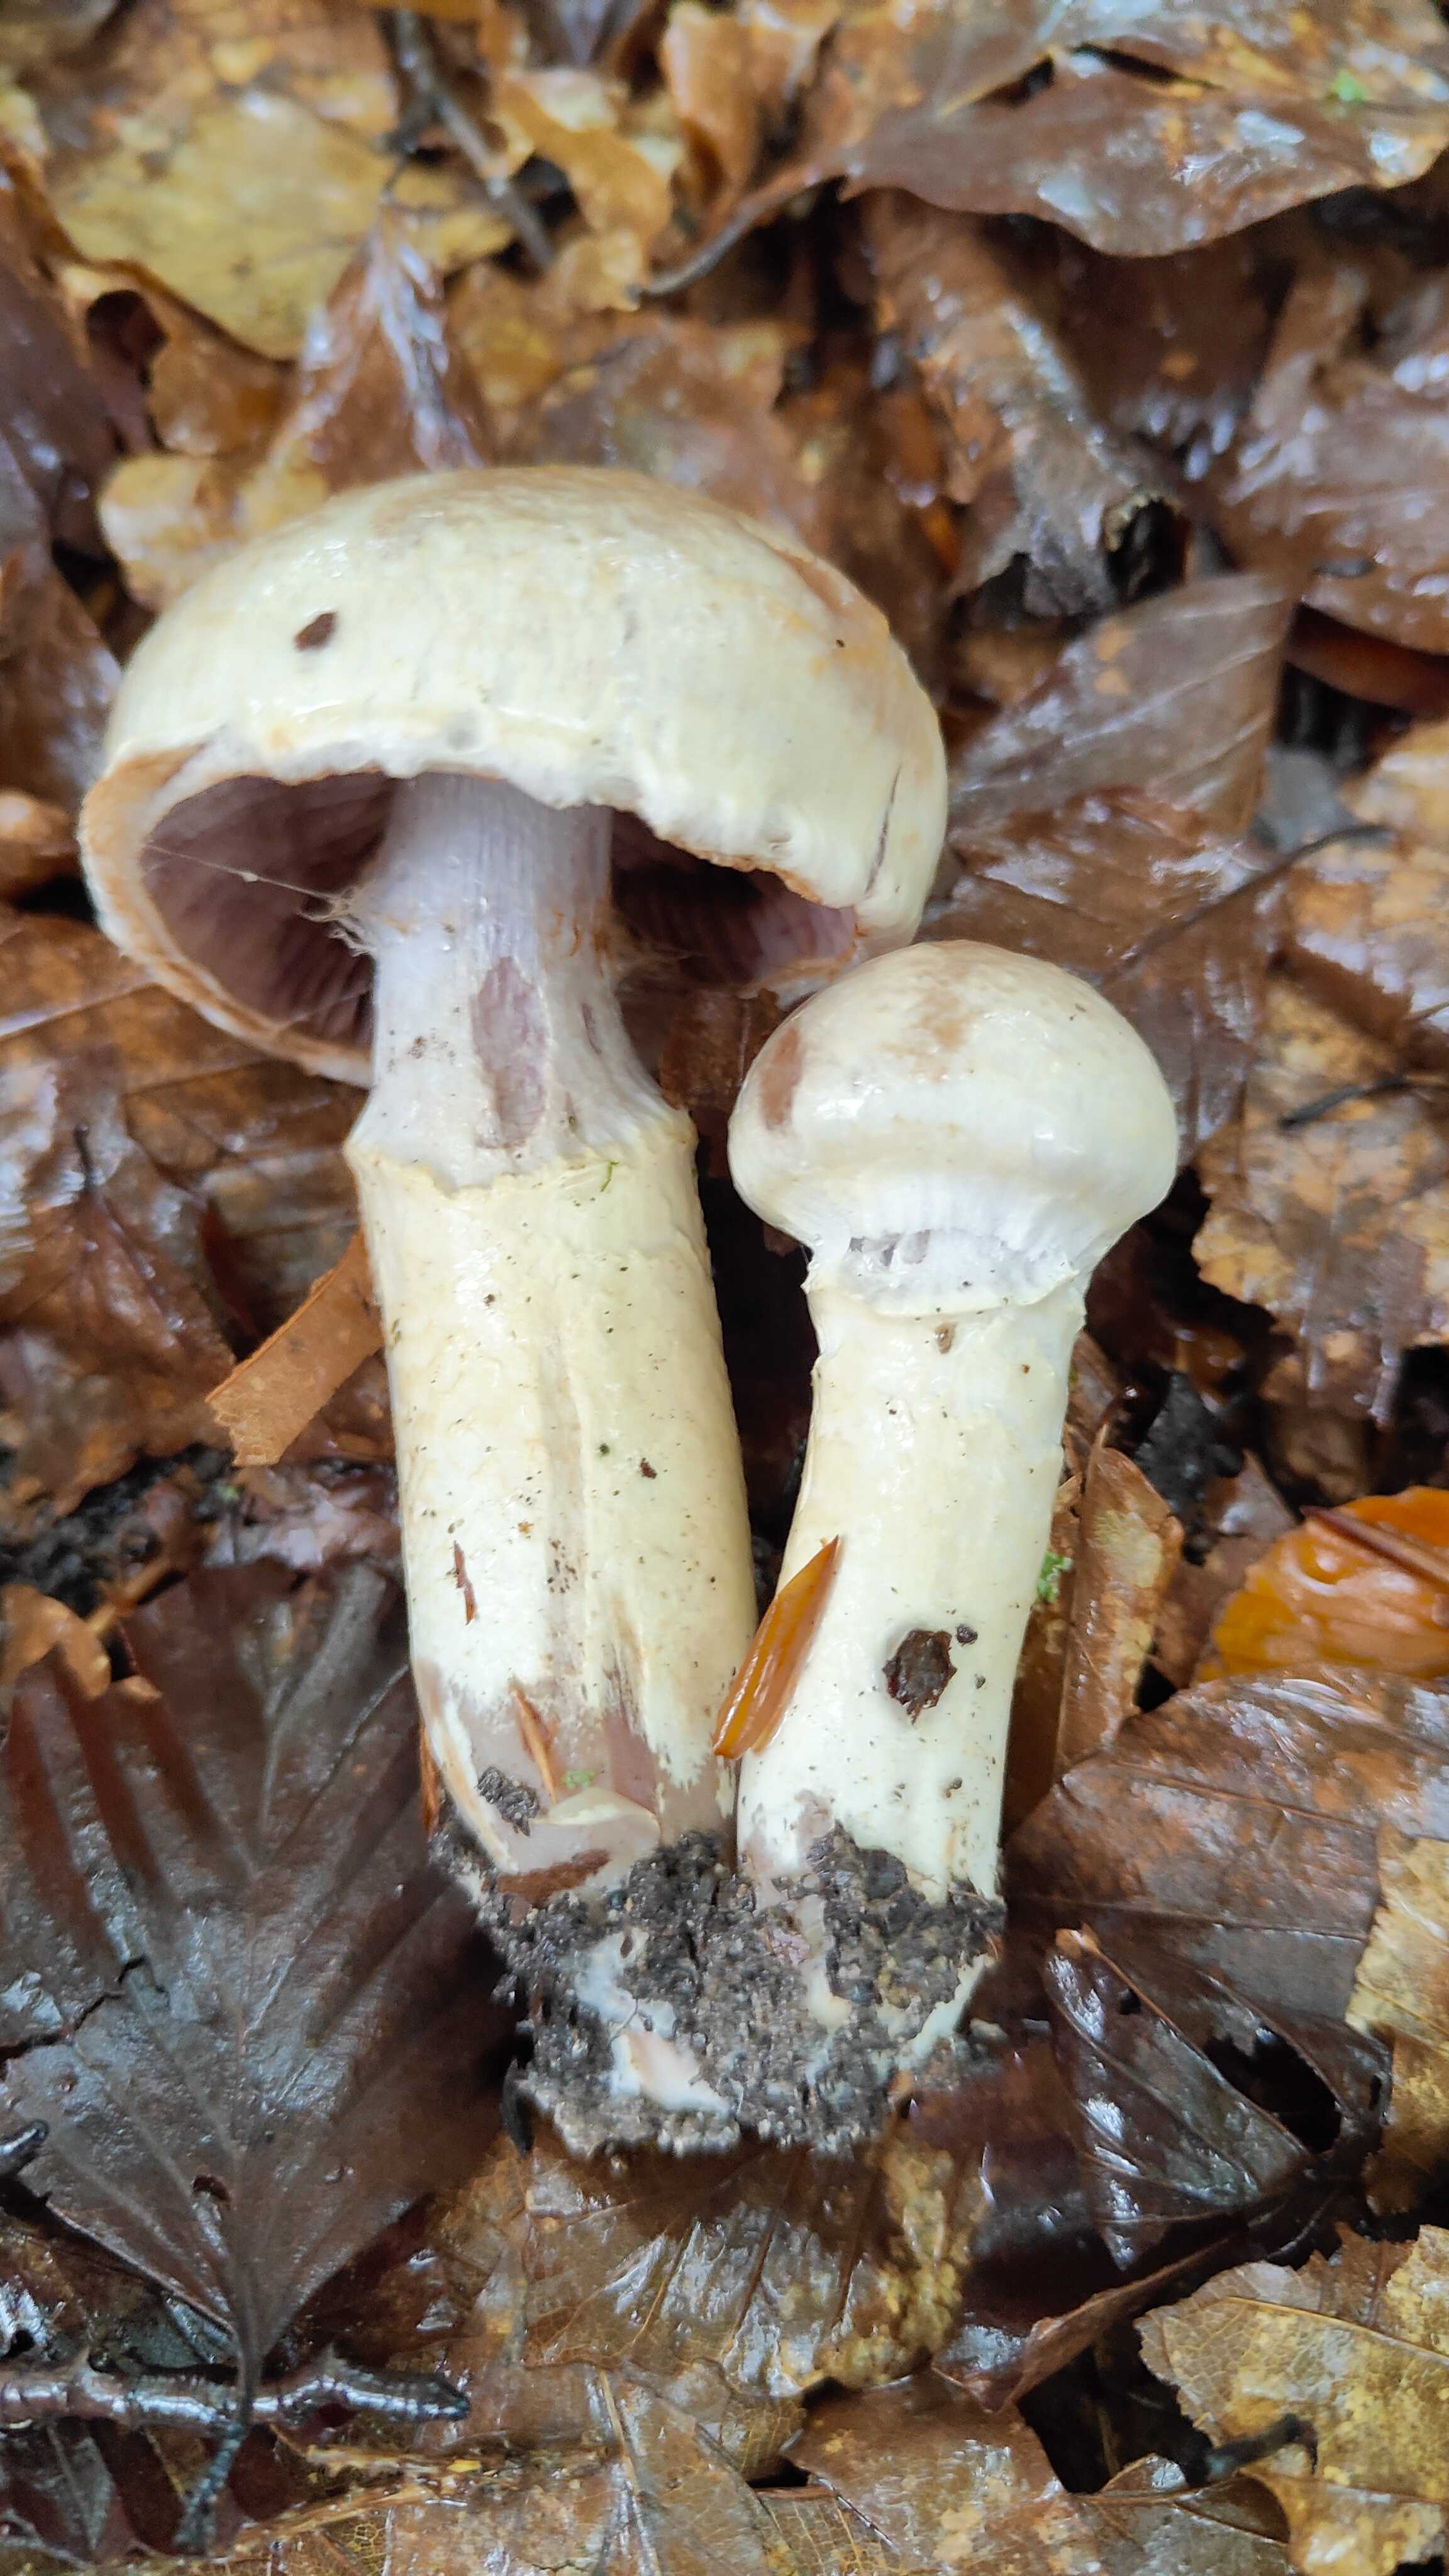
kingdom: Fungi
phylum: Basidiomycota
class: Agaricomycetes
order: Agaricales
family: Cortinariaceae
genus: Cortinarius
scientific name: Cortinarius torvus
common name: champignonagtig slørhat
